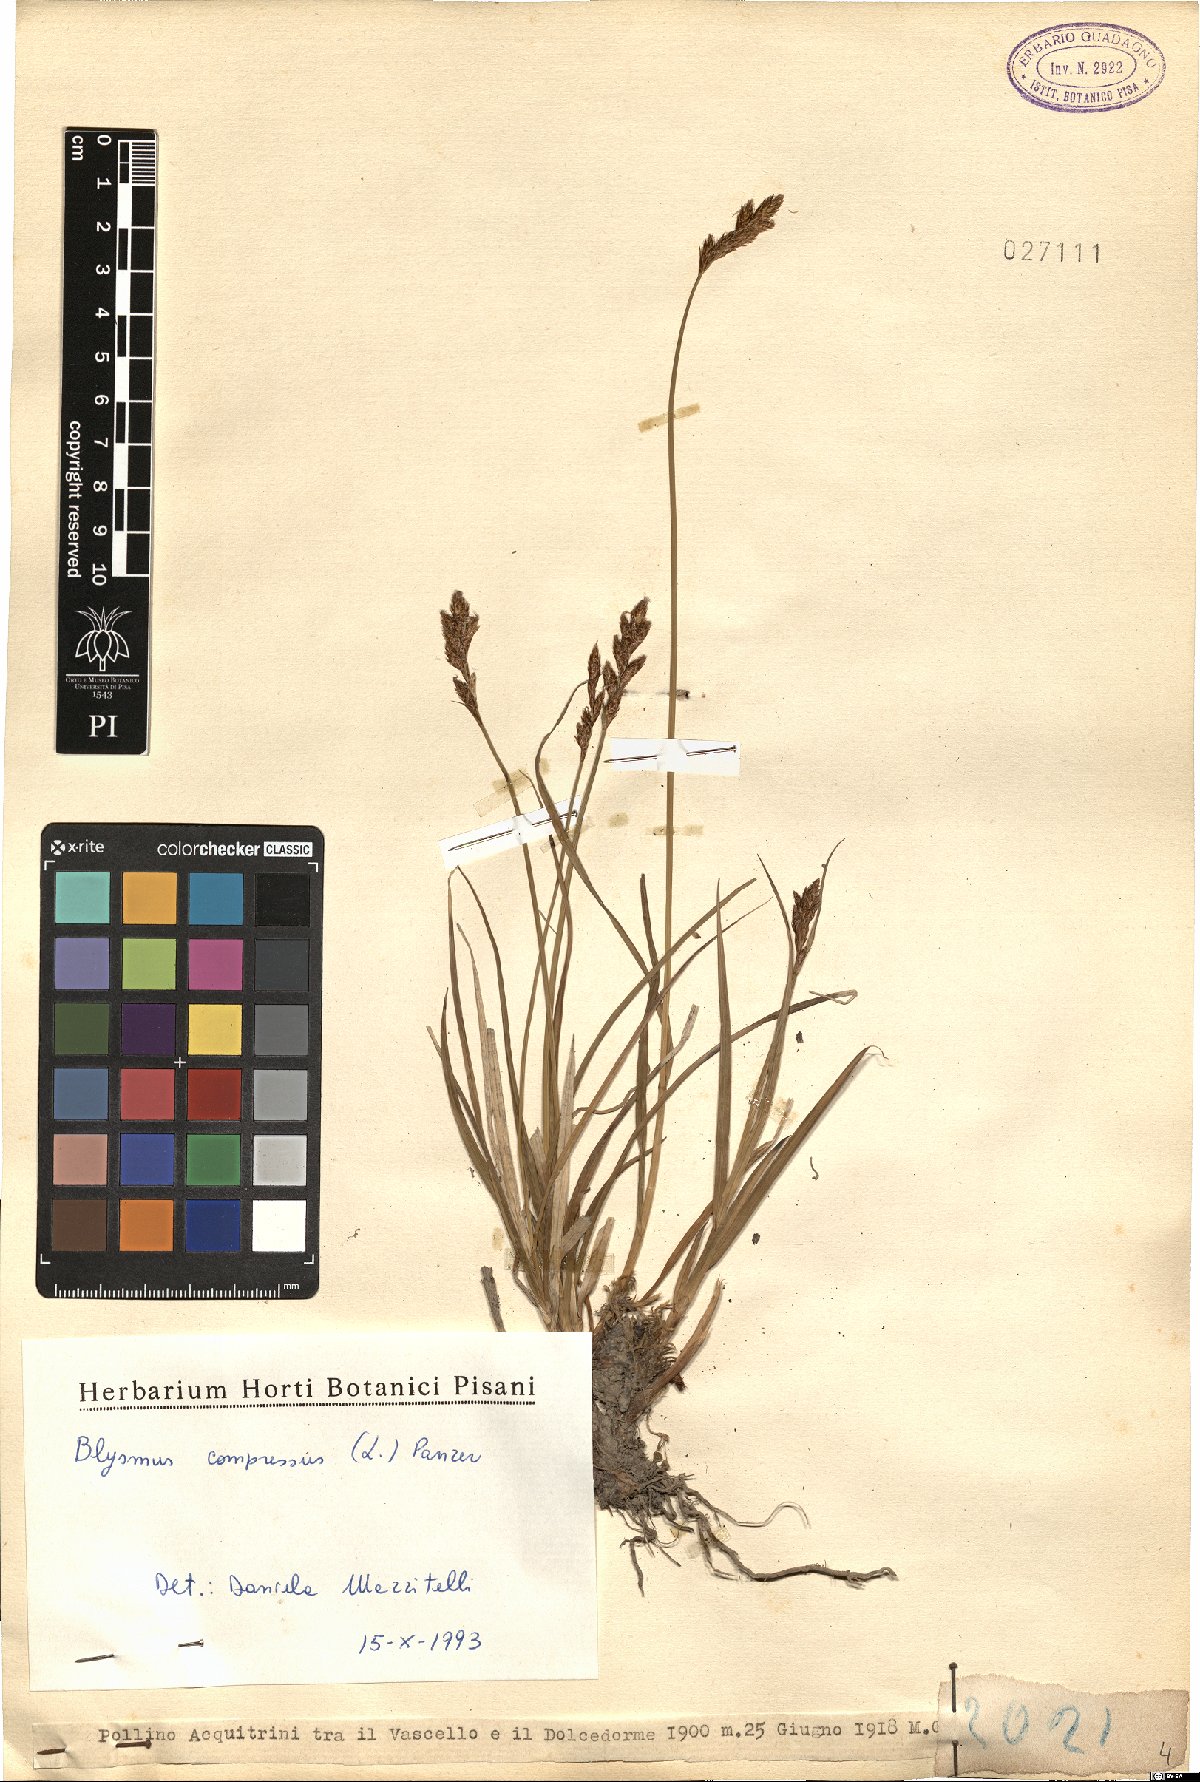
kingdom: Plantae
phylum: Tracheophyta
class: Liliopsida
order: Poales
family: Cyperaceae
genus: Carex
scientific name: Carex leporina
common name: Oval sedge
